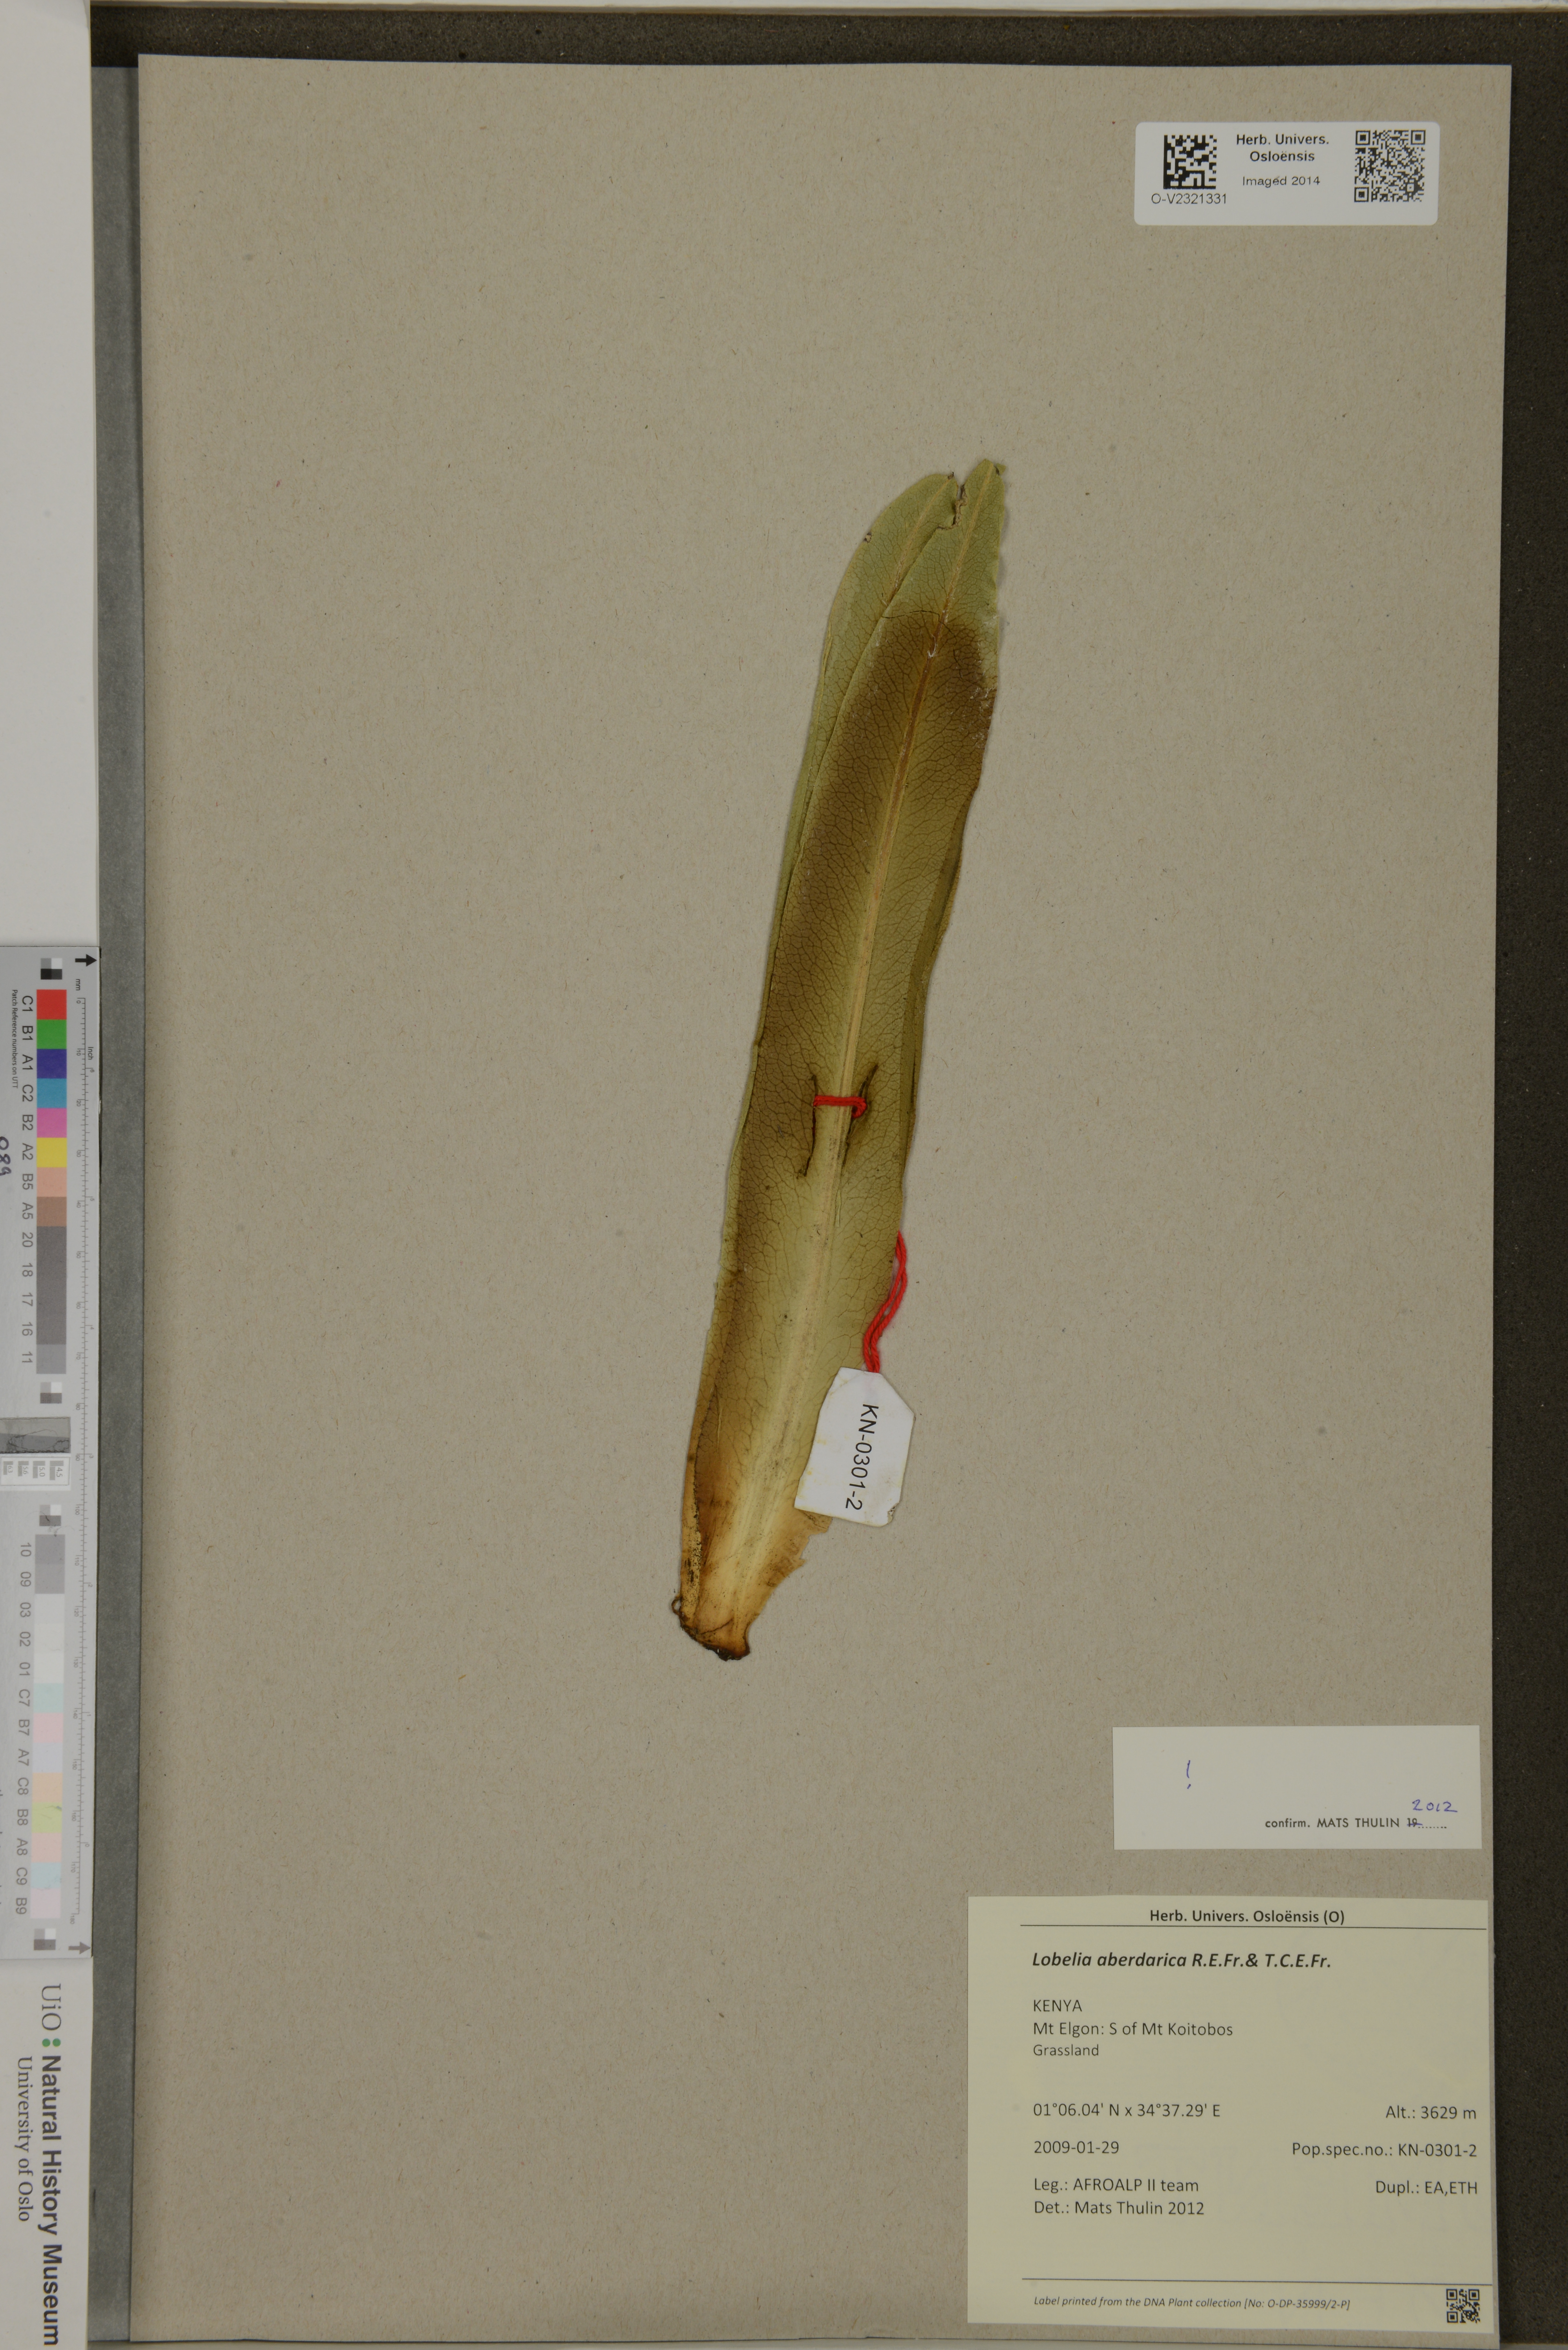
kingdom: Plantae
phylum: Tracheophyta
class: Magnoliopsida
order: Asterales
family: Campanulaceae
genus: Lobelia
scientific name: Lobelia aberdarica
